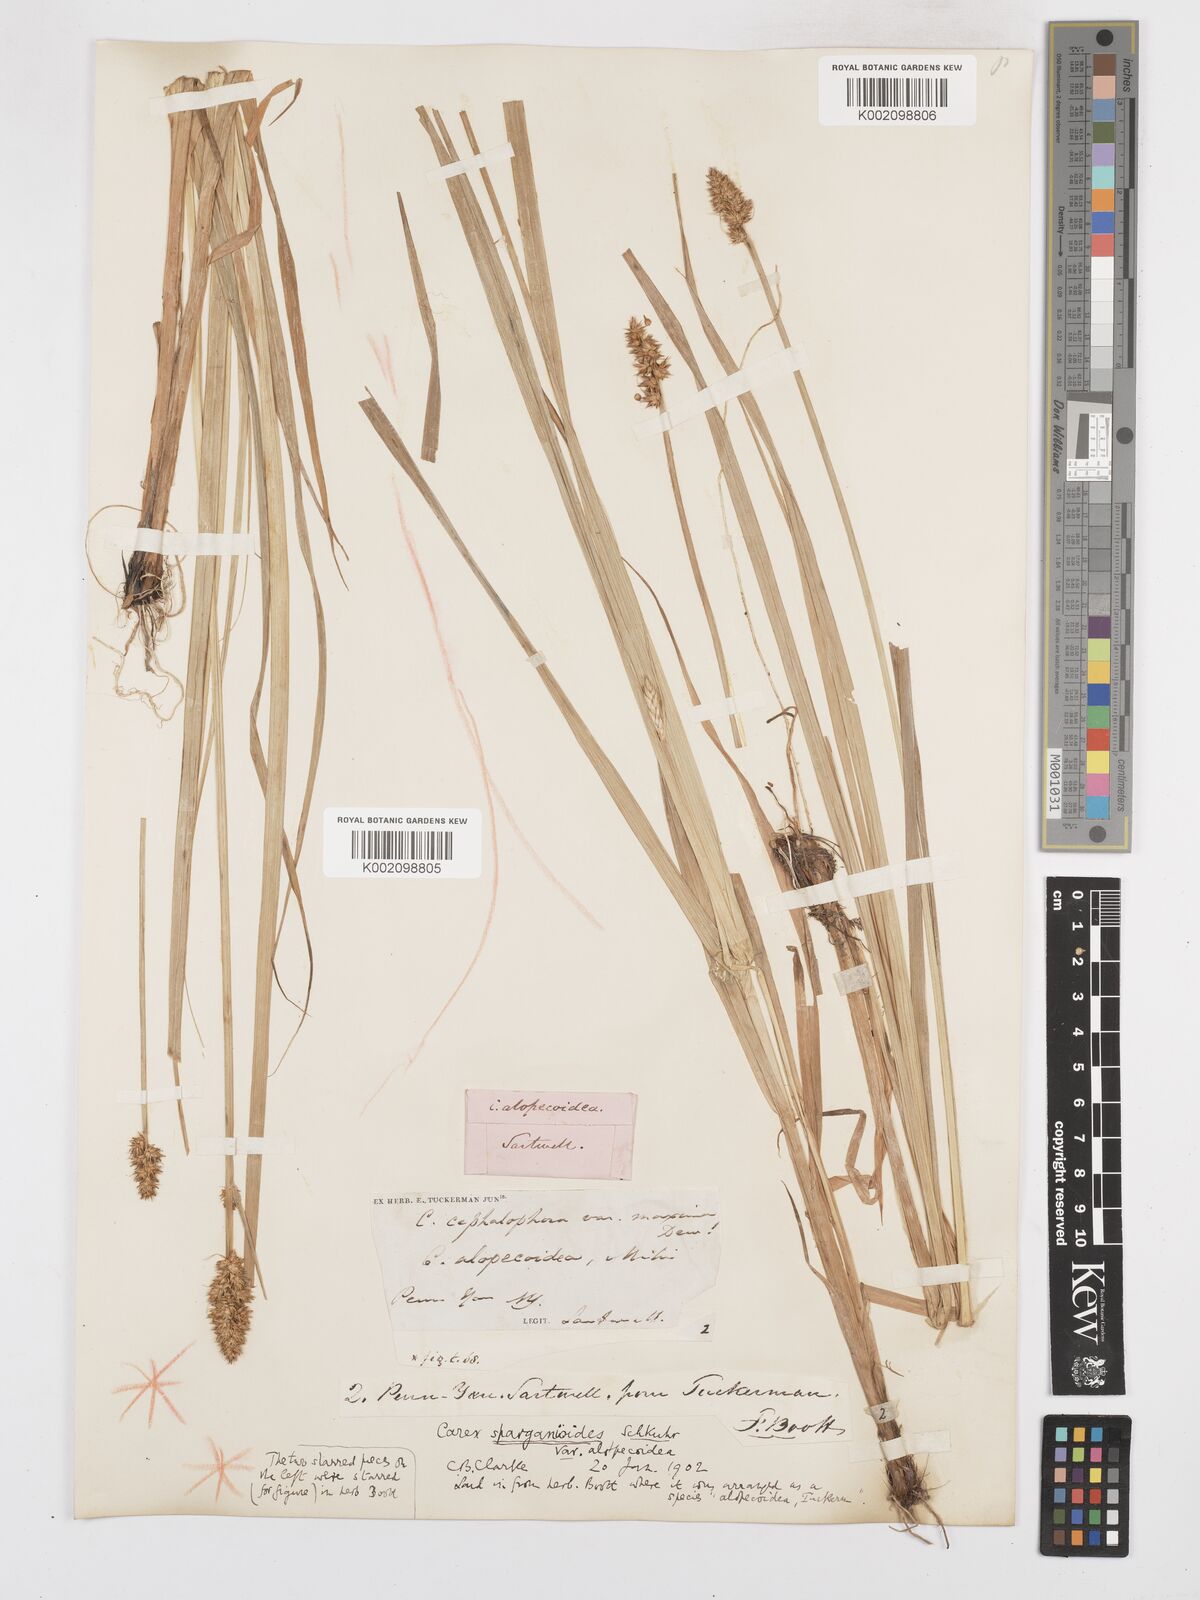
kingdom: Plantae
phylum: Tracheophyta
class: Liliopsida
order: Poales
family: Cyperaceae
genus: Carex
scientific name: Carex sparganioides
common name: Burreed sedge
